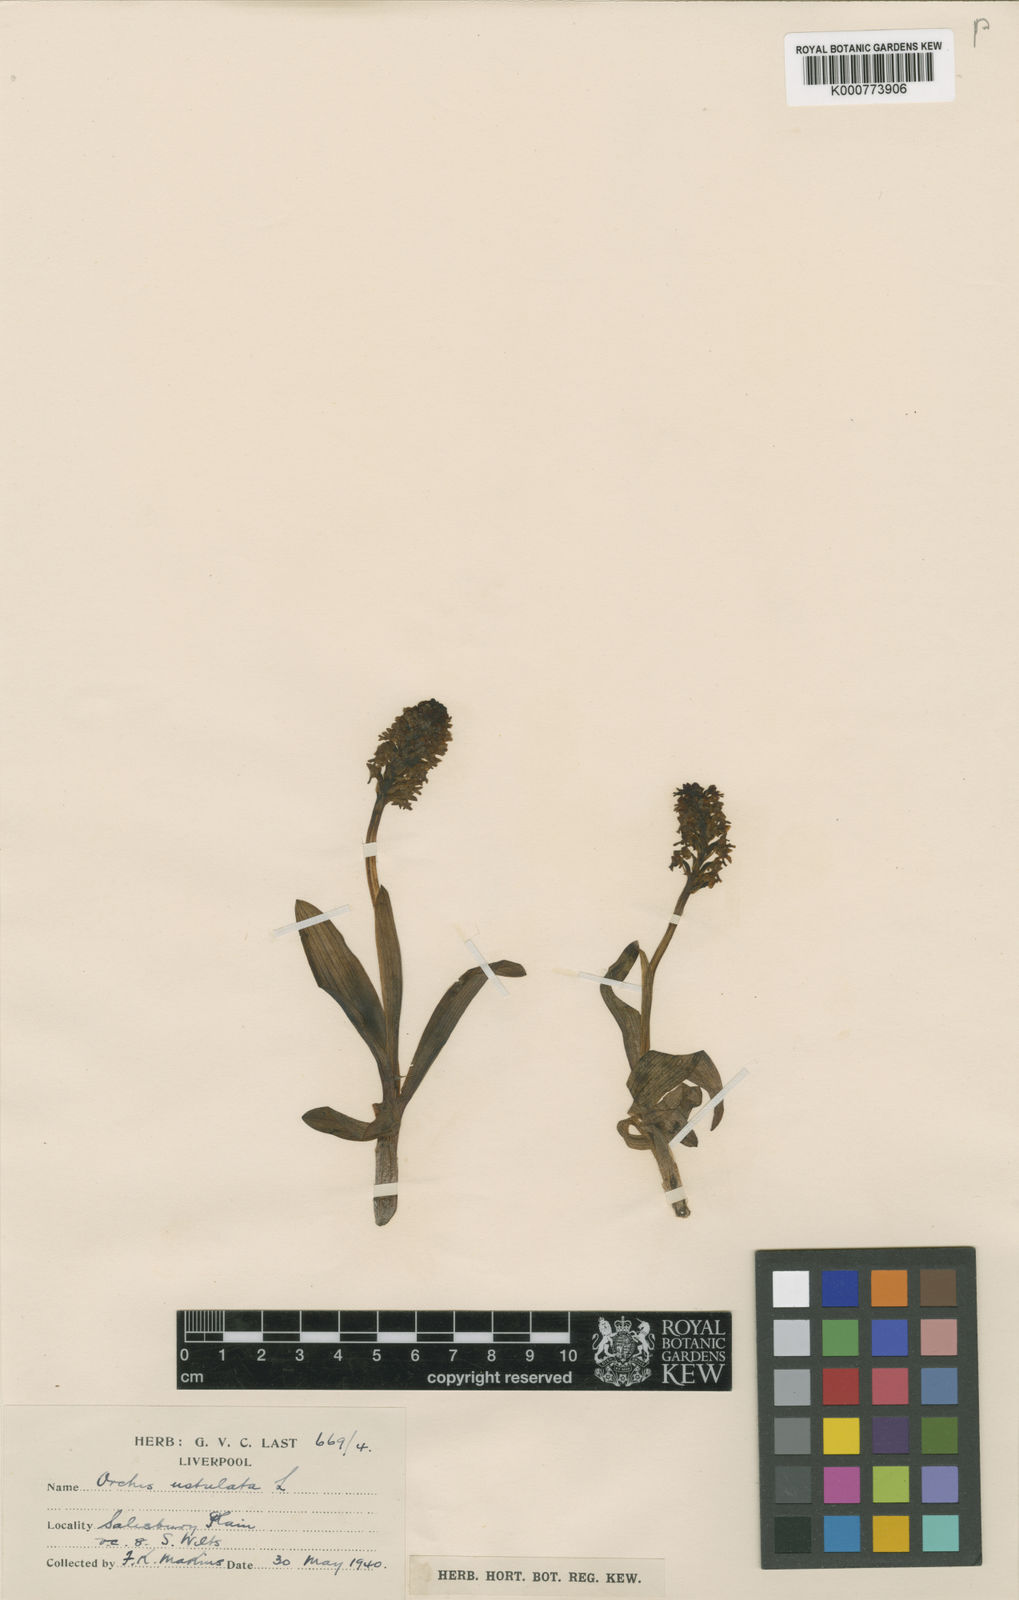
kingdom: Plantae
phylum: Tracheophyta
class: Liliopsida
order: Asparagales
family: Orchidaceae
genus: Neotinea
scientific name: Neotinea ustulata
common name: Burnt orchid
